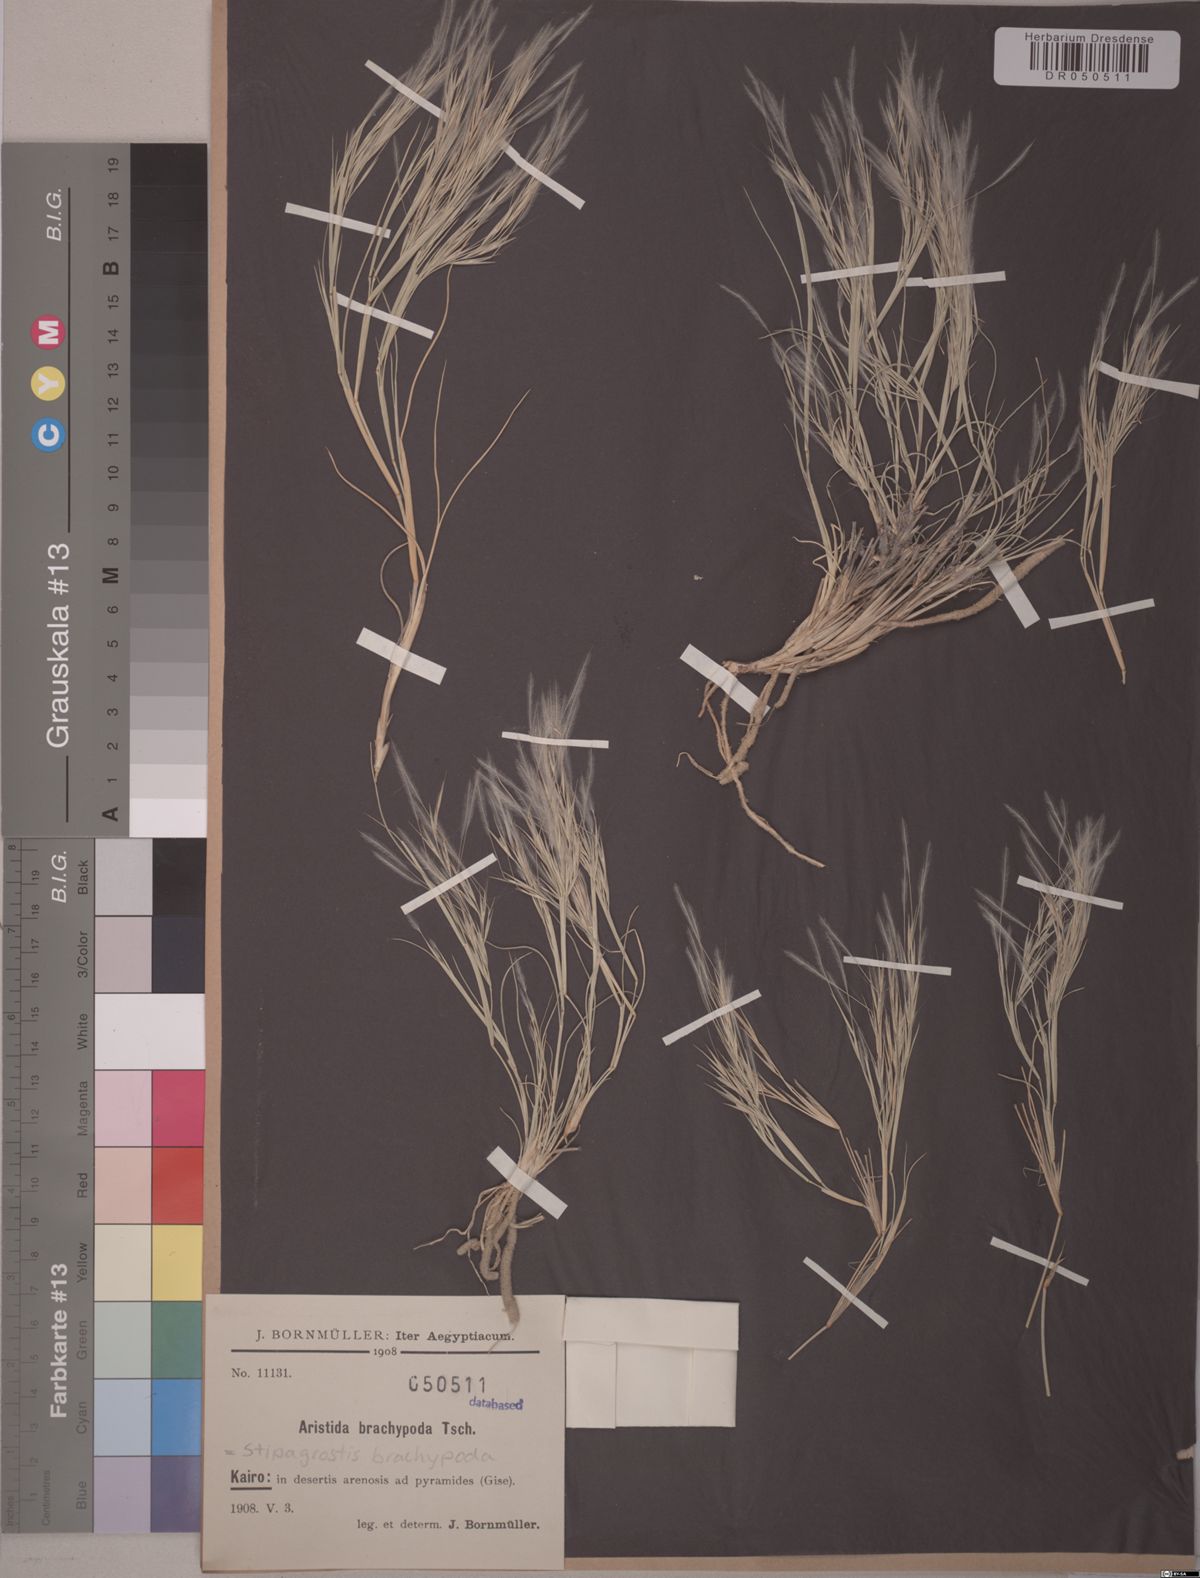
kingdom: Plantae
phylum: Tracheophyta
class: Liliopsida
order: Poales
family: Poaceae
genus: Stipagrostis
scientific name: Stipagrostis plumosa
